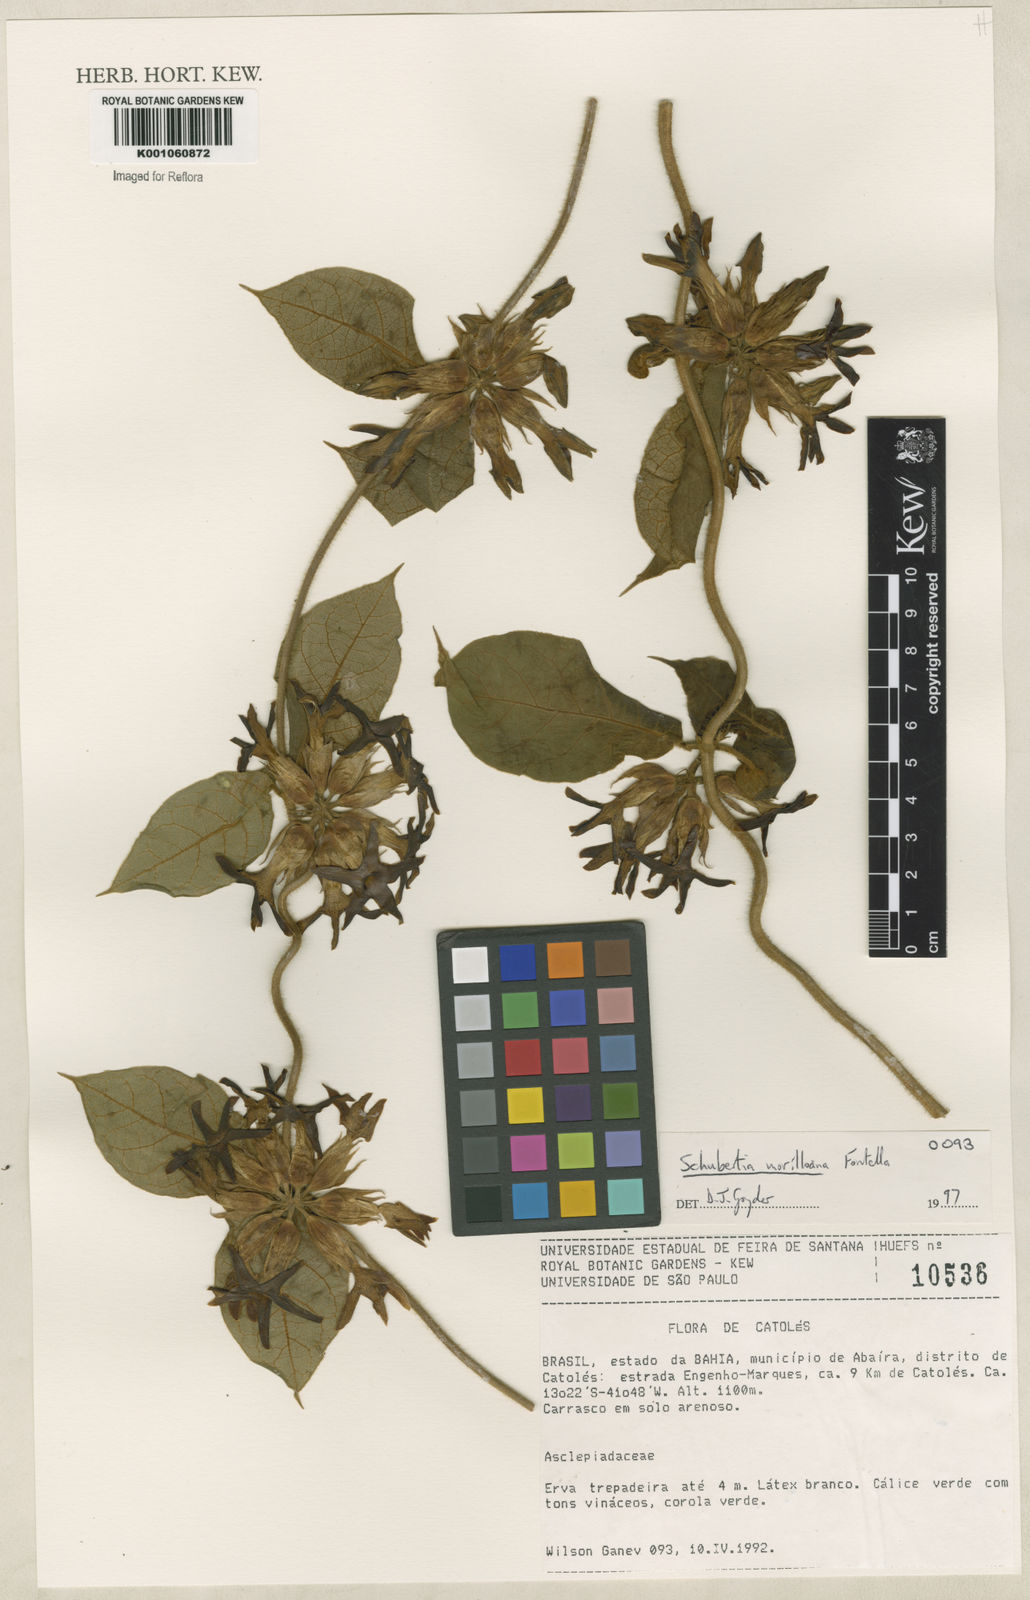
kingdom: Plantae
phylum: Tracheophyta
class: Magnoliopsida
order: Gentianales
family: Apocynaceae
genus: Schubertia
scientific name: Schubertia multiflora
